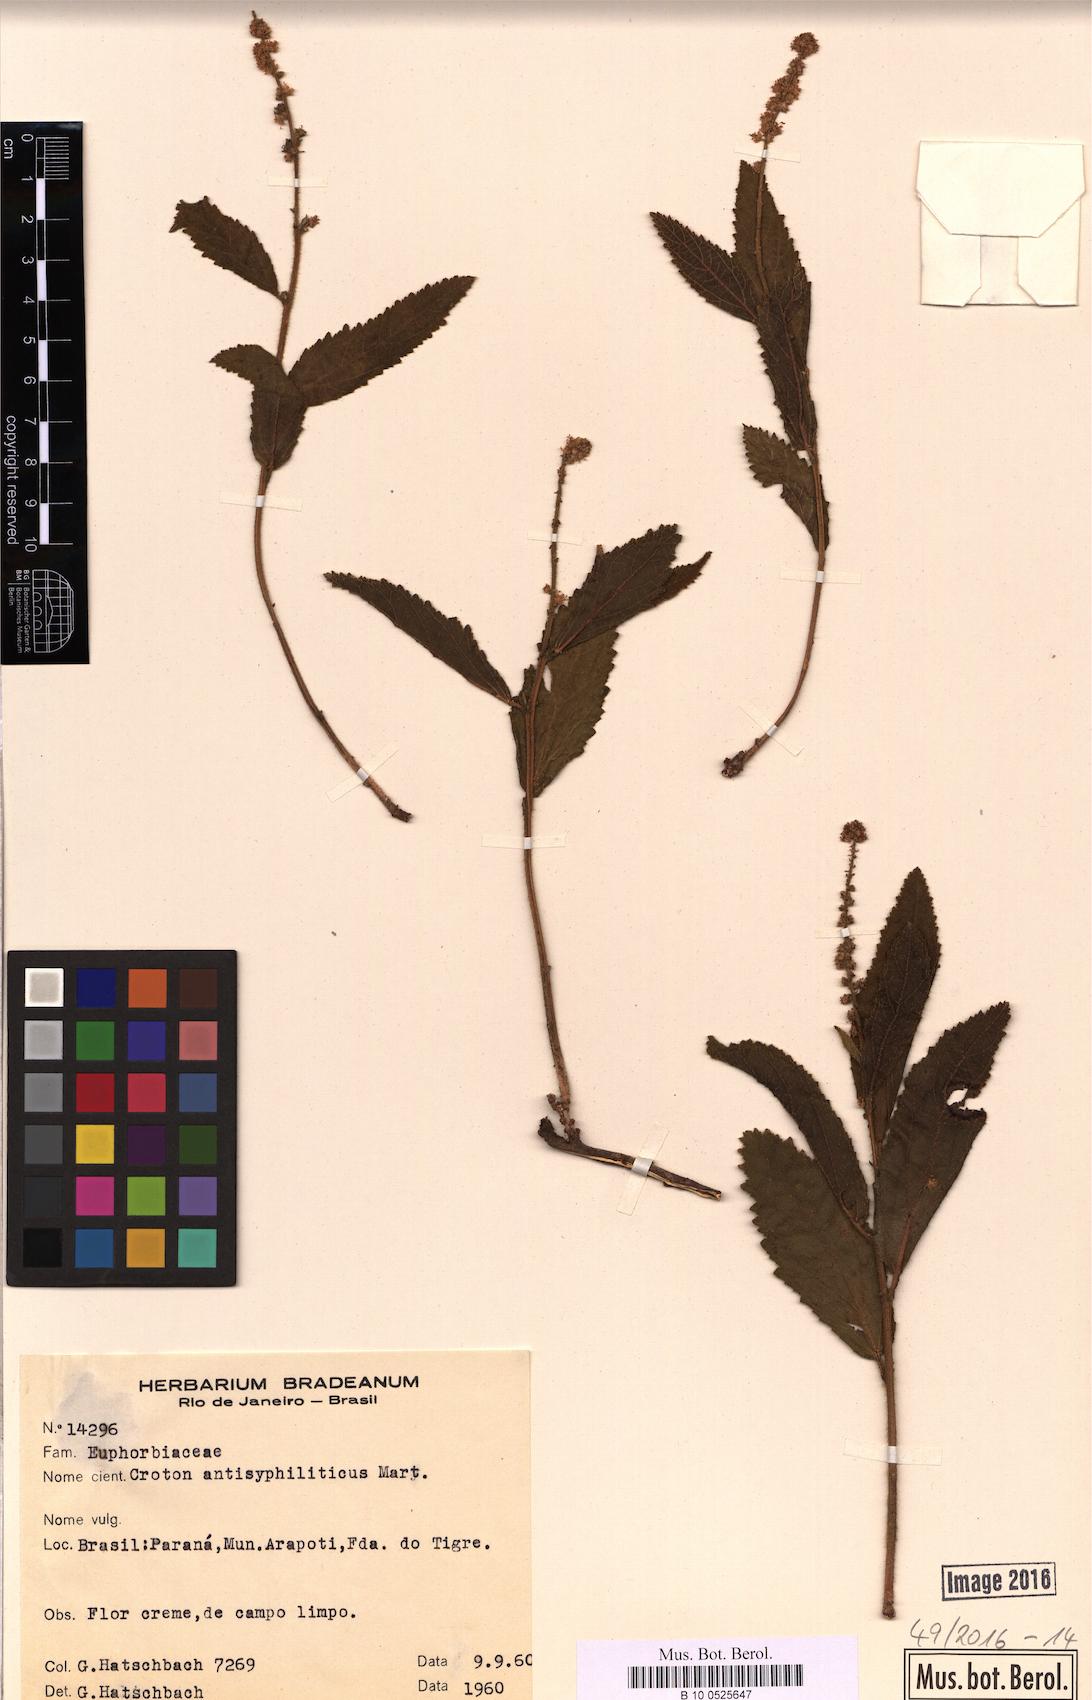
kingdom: Plantae
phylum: Tracheophyta
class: Magnoliopsida
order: Malpighiales
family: Euphorbiaceae
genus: Croton
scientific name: Croton antisyphiliticus
